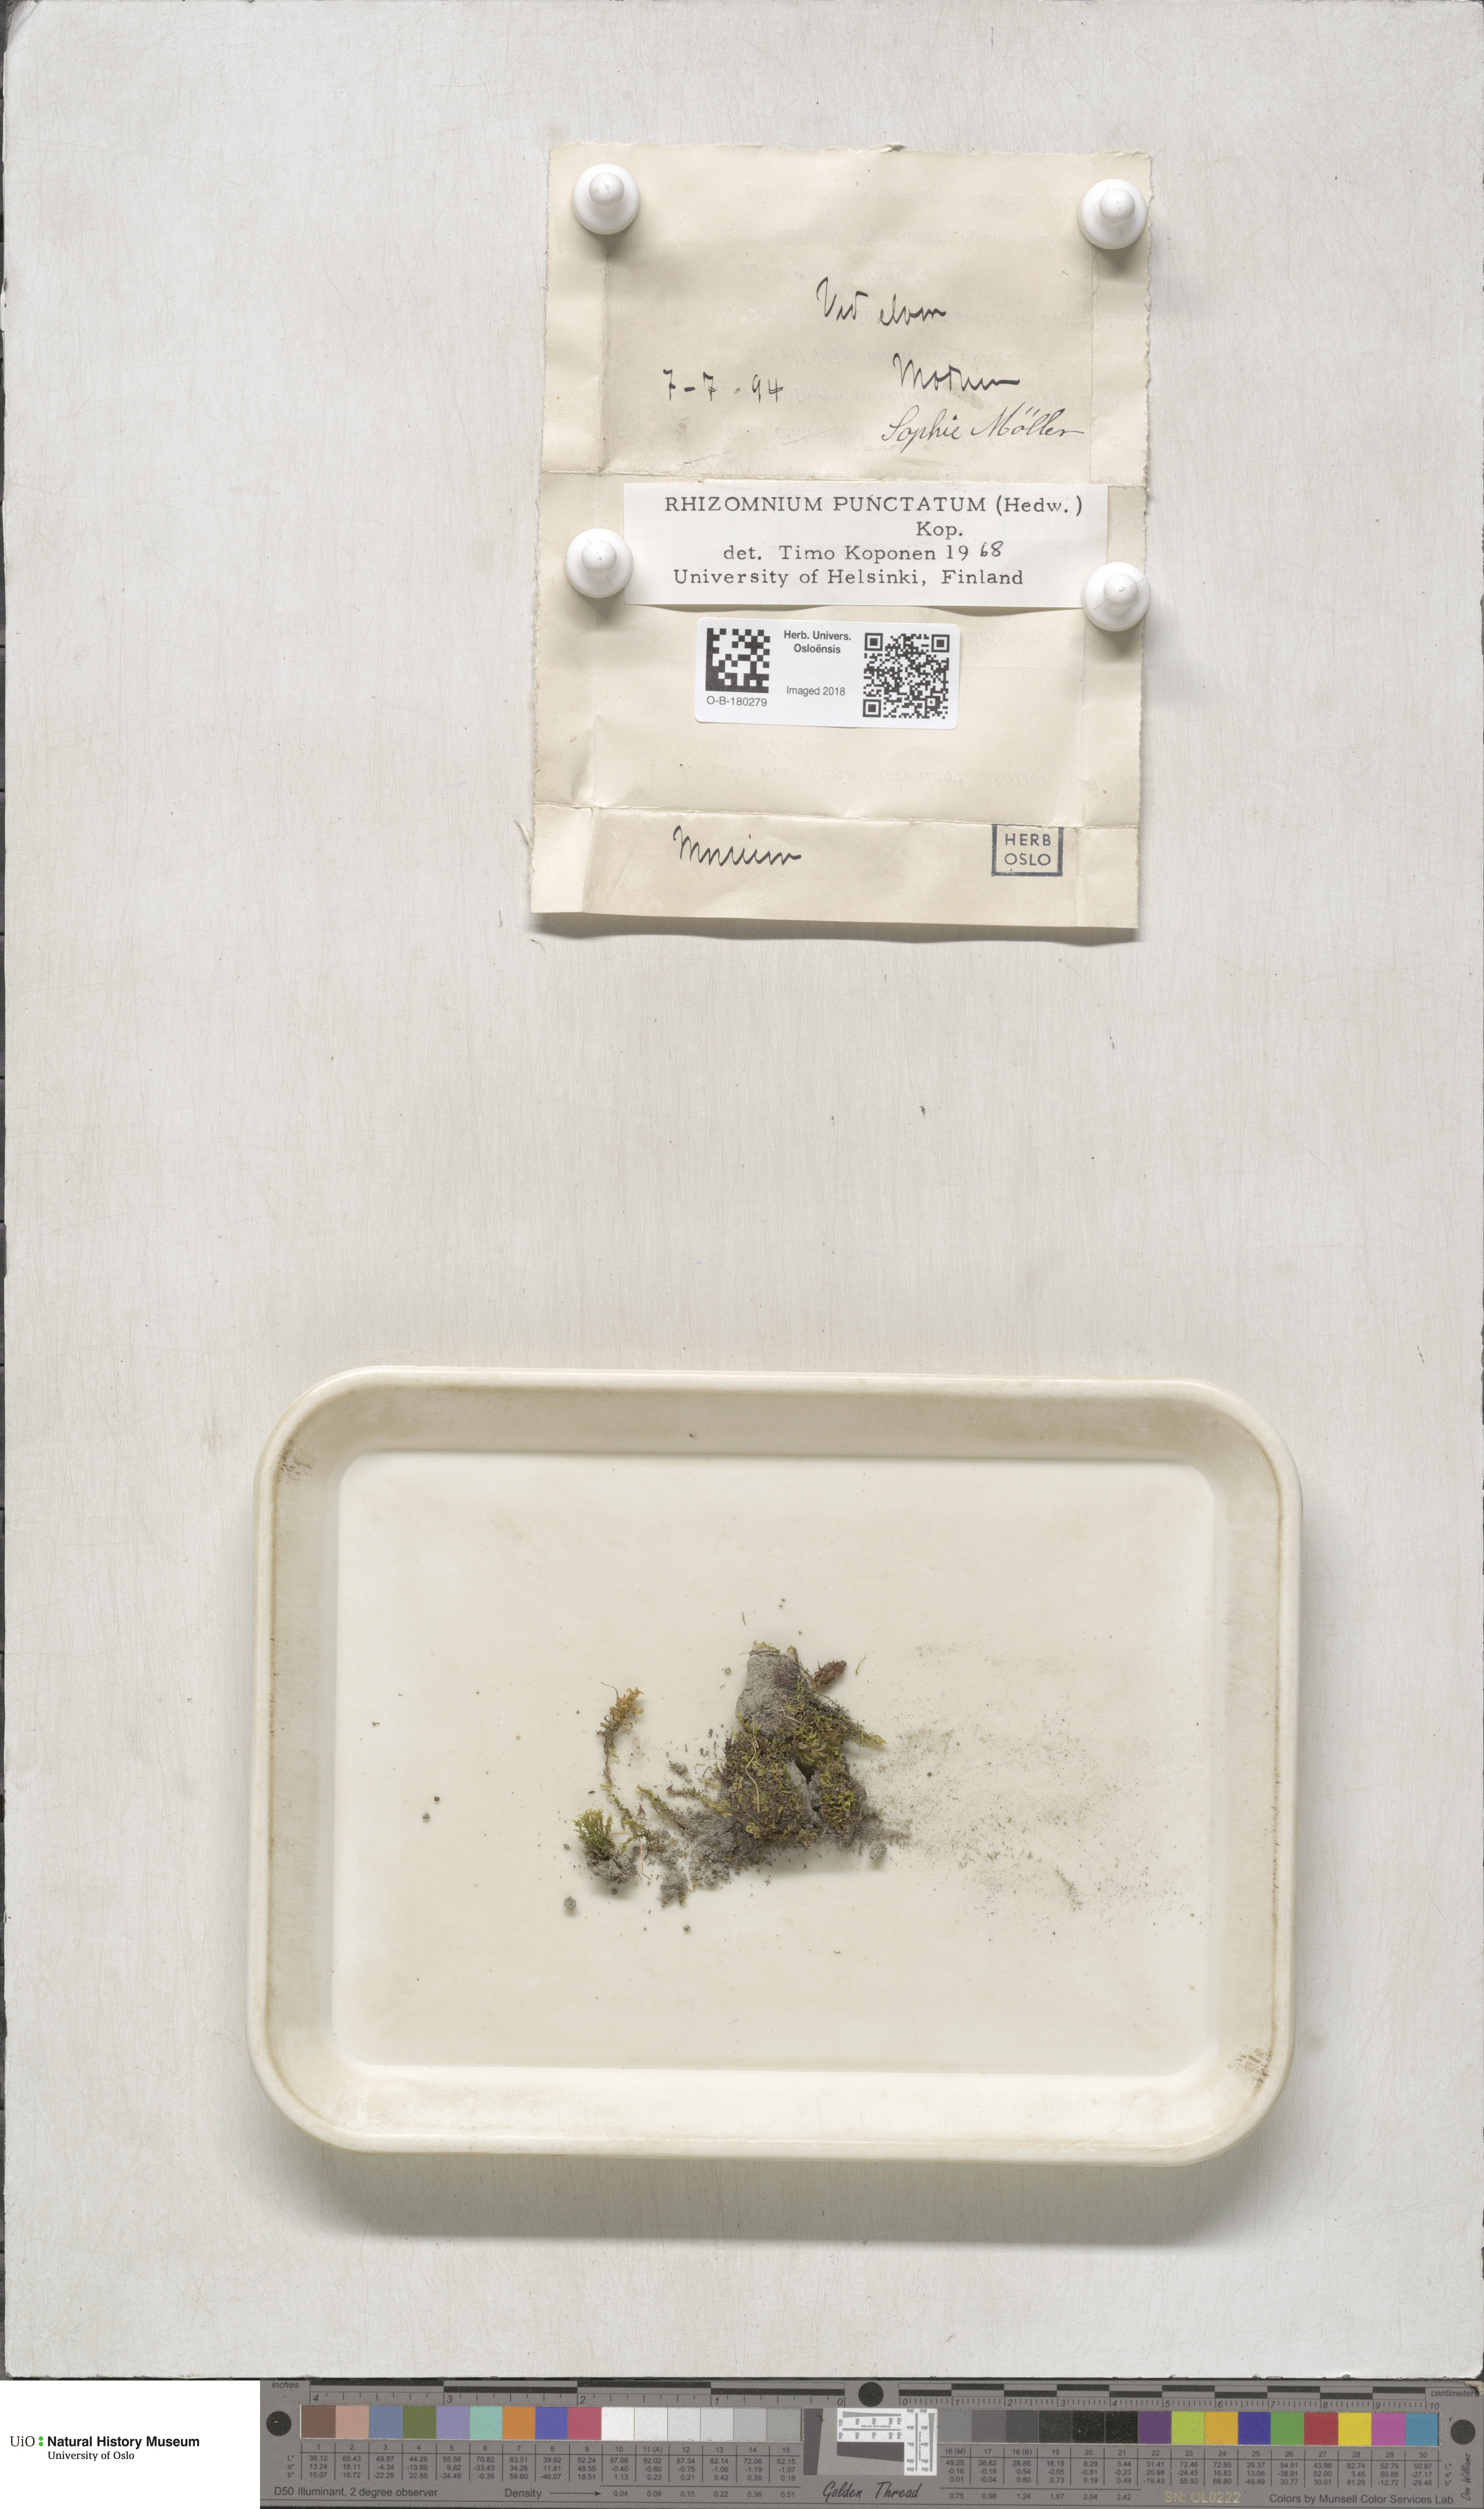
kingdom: Plantae
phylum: Bryophyta
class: Bryopsida
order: Bryales
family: Mniaceae
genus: Rhizomnium
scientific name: Rhizomnium punctatum
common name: Dotted leafy moss
